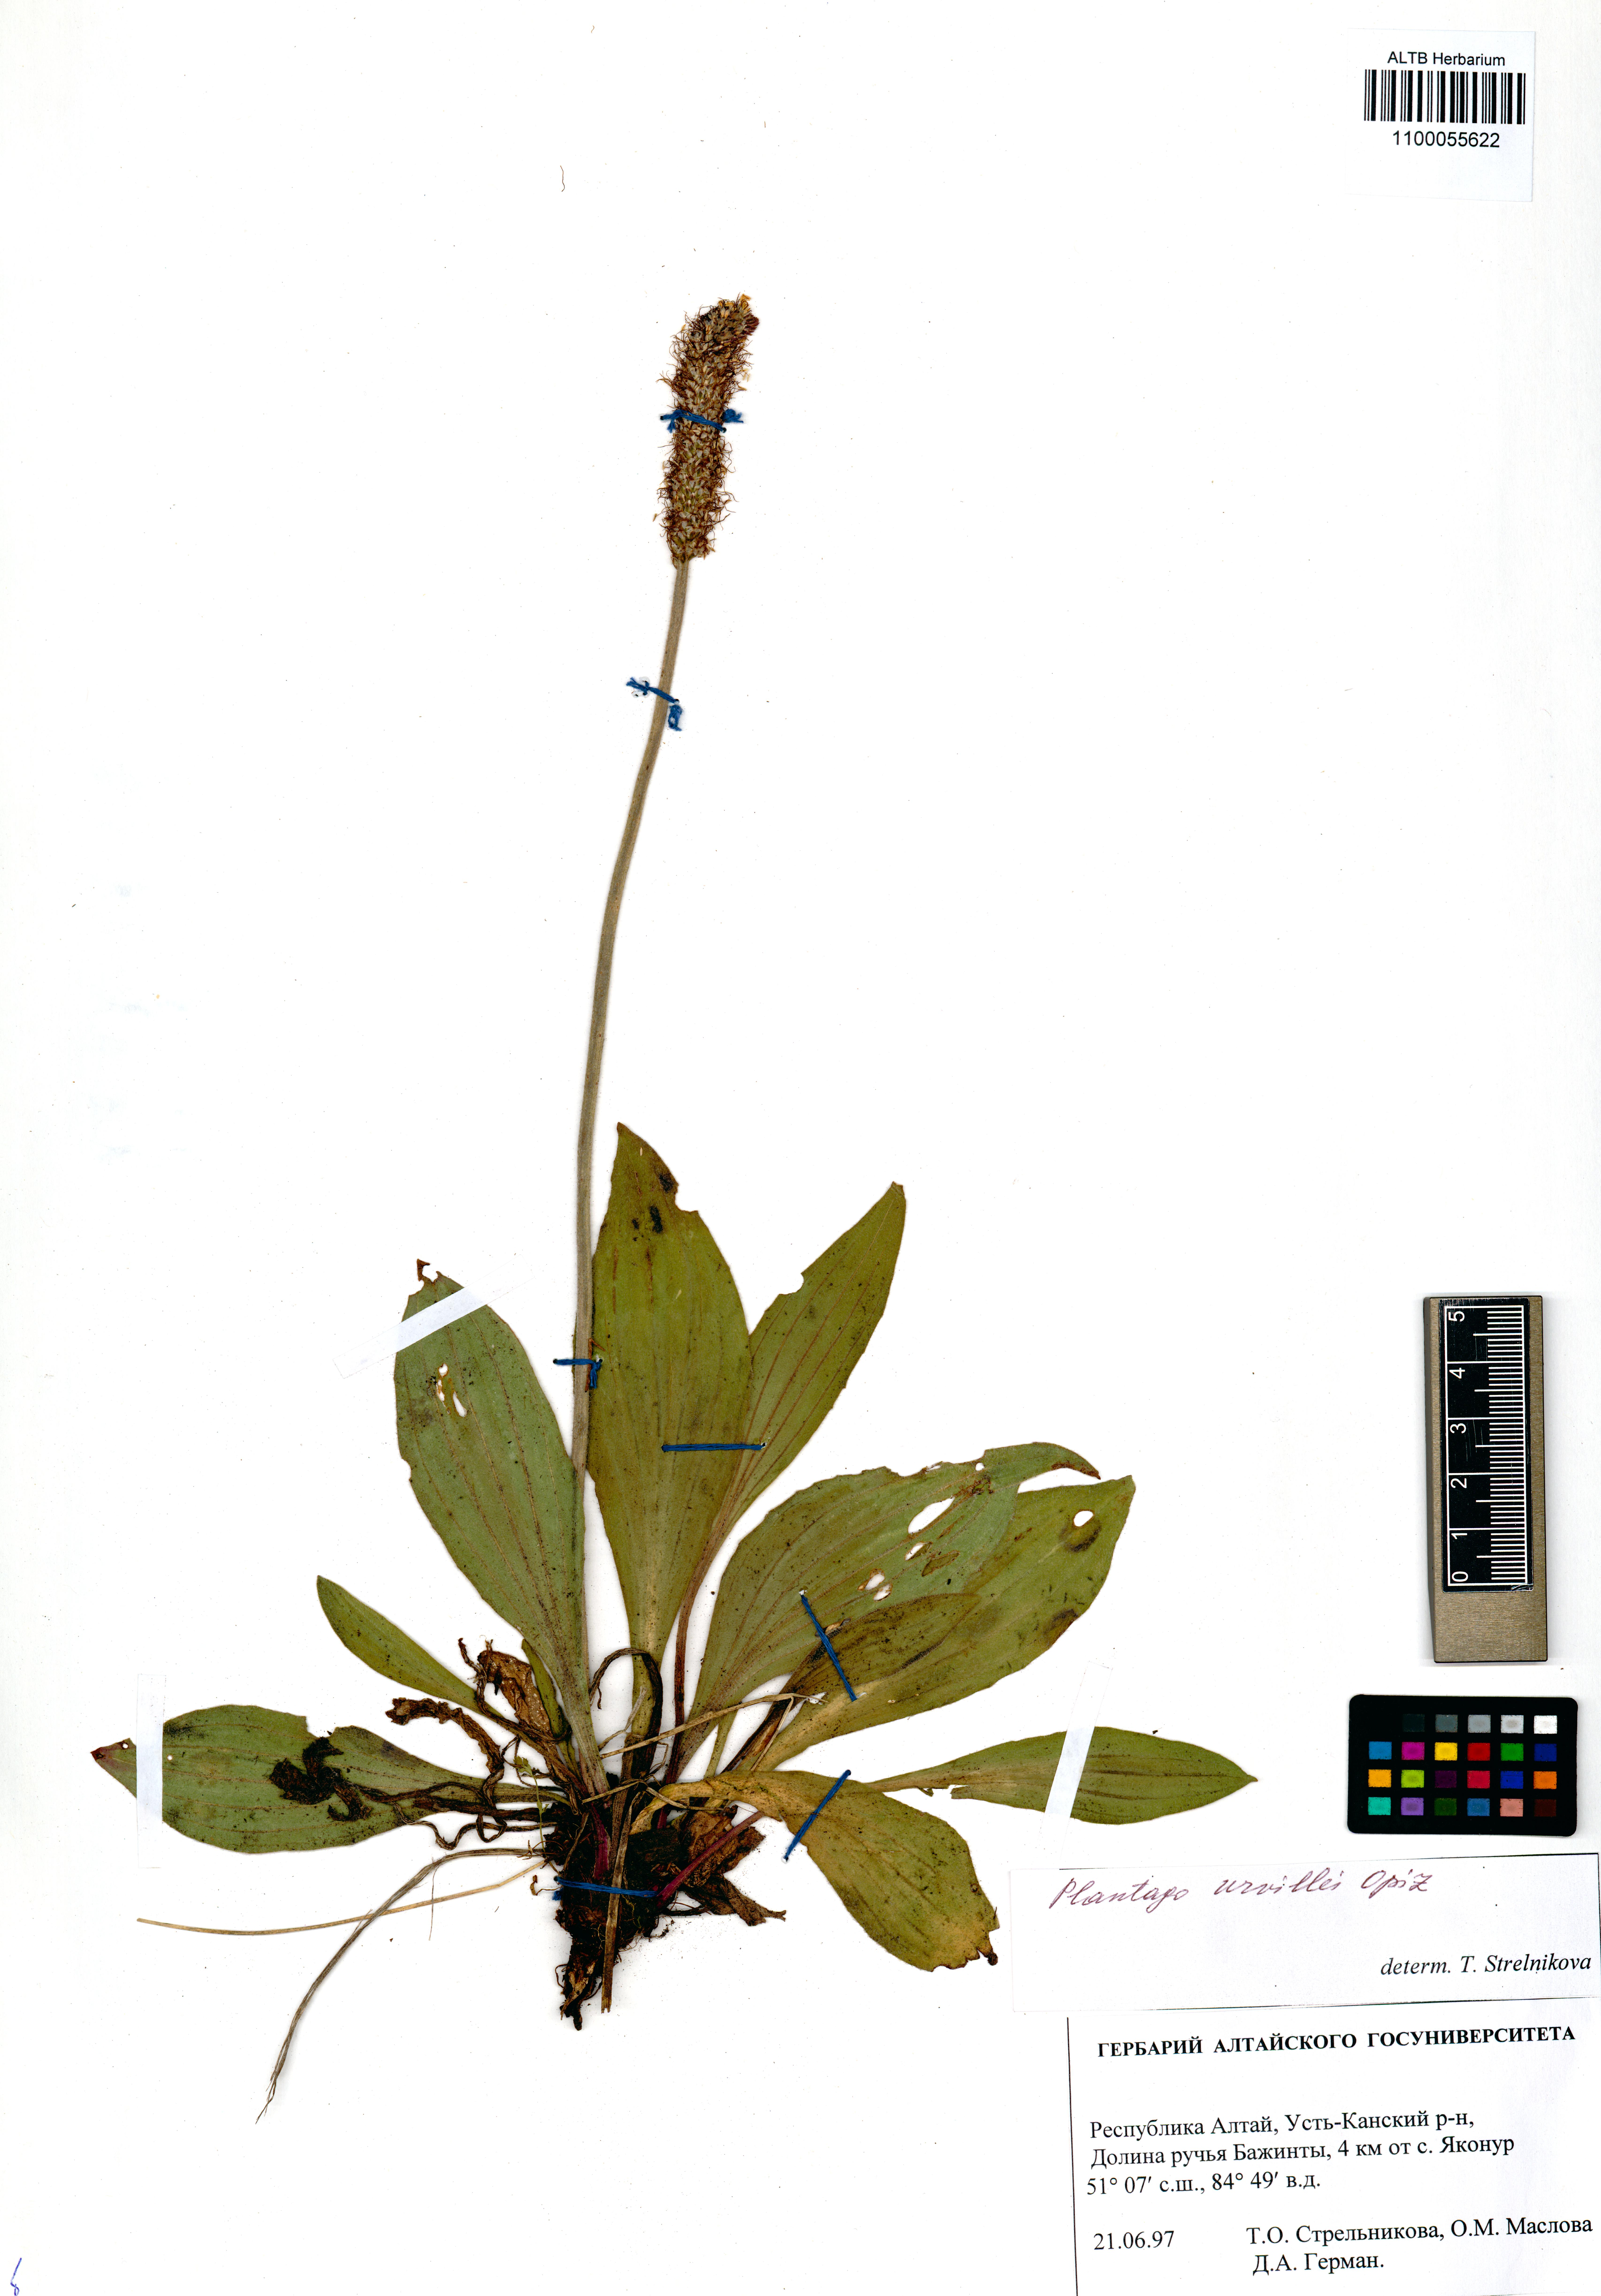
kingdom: Plantae
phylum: Tracheophyta
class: Magnoliopsida
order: Lamiales
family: Plantaginaceae
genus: Plantago
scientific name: Plantago urvillei
